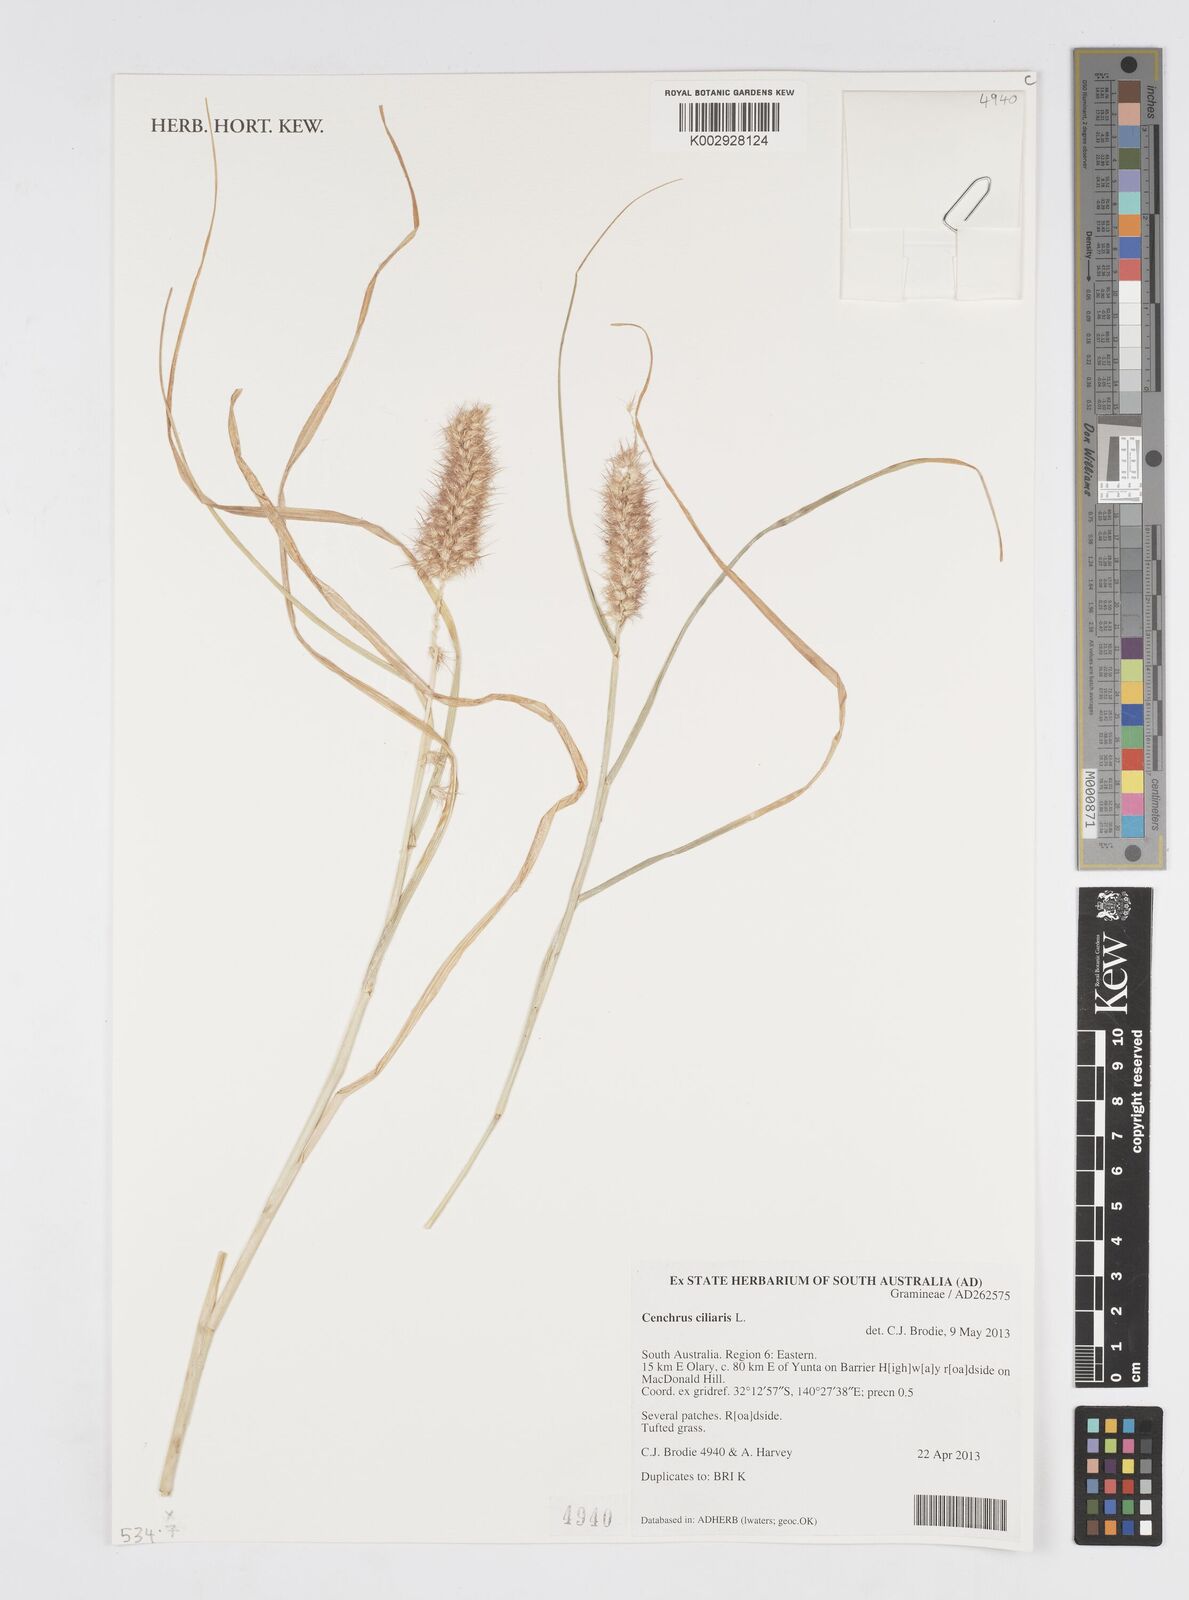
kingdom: Plantae
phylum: Tracheophyta
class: Liliopsida
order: Poales
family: Poaceae
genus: Cenchrus
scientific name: Cenchrus ciliaris
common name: Buffelgrass
